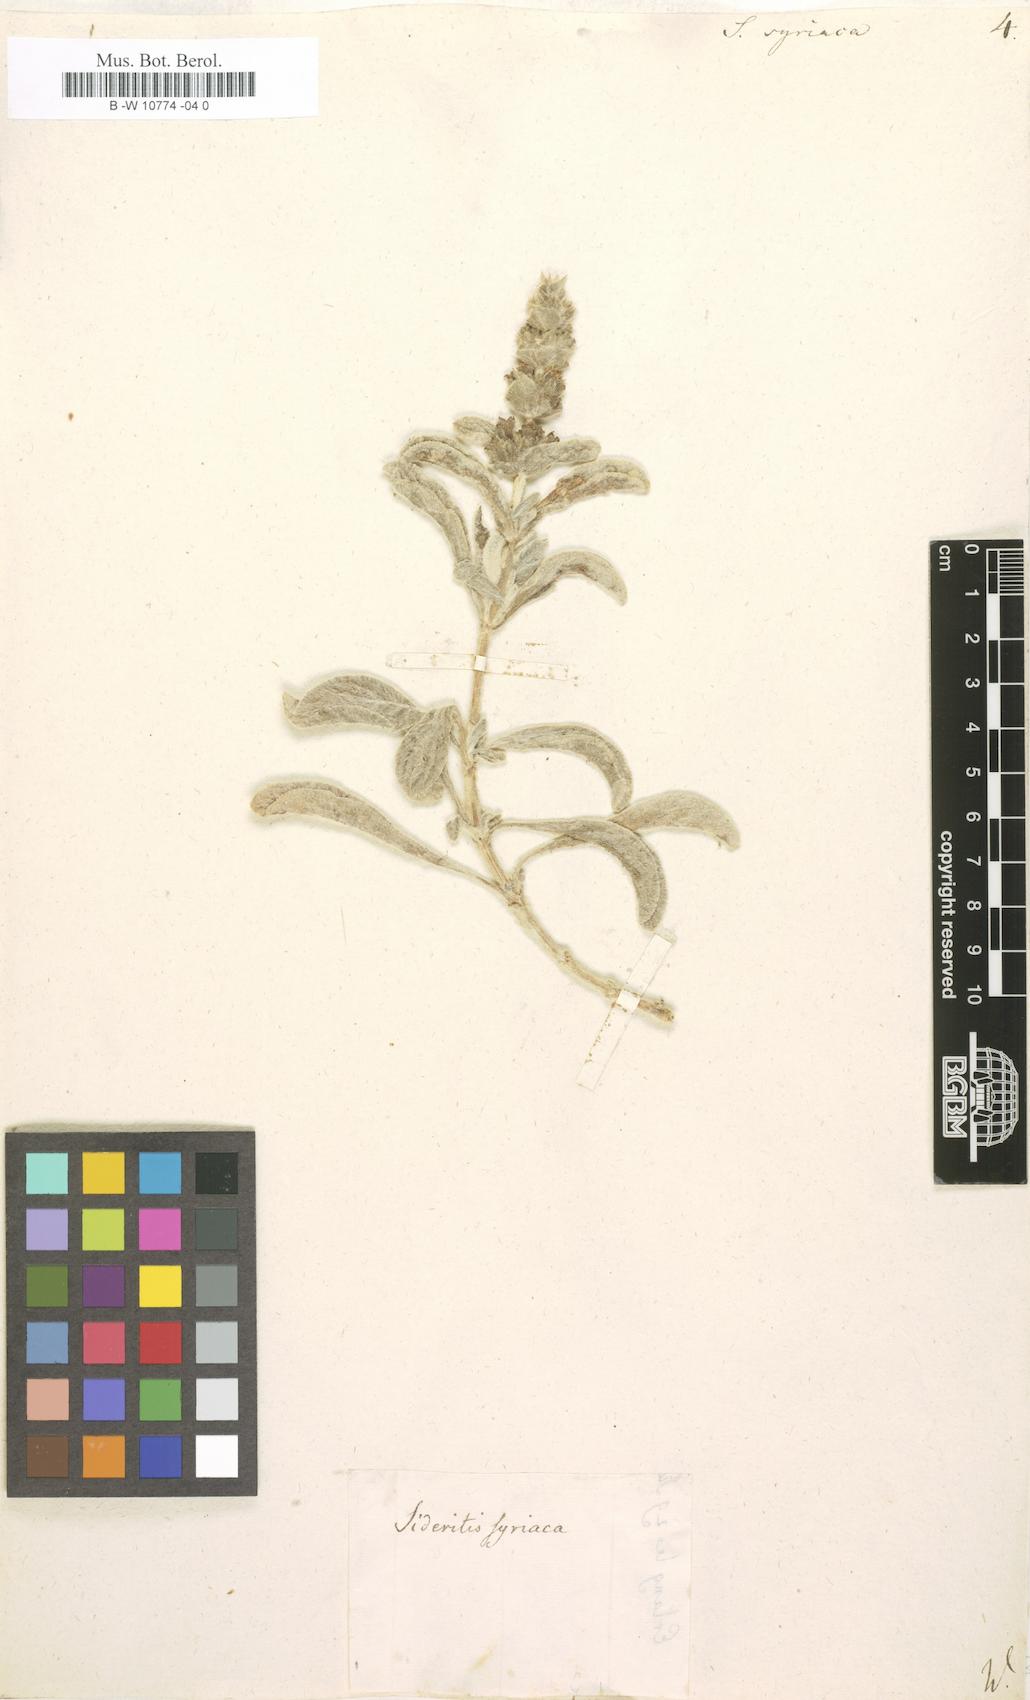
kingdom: Plantae
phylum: Tracheophyta
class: Magnoliopsida
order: Lamiales
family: Lamiaceae
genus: Sideritis
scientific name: Sideritis syriaca
